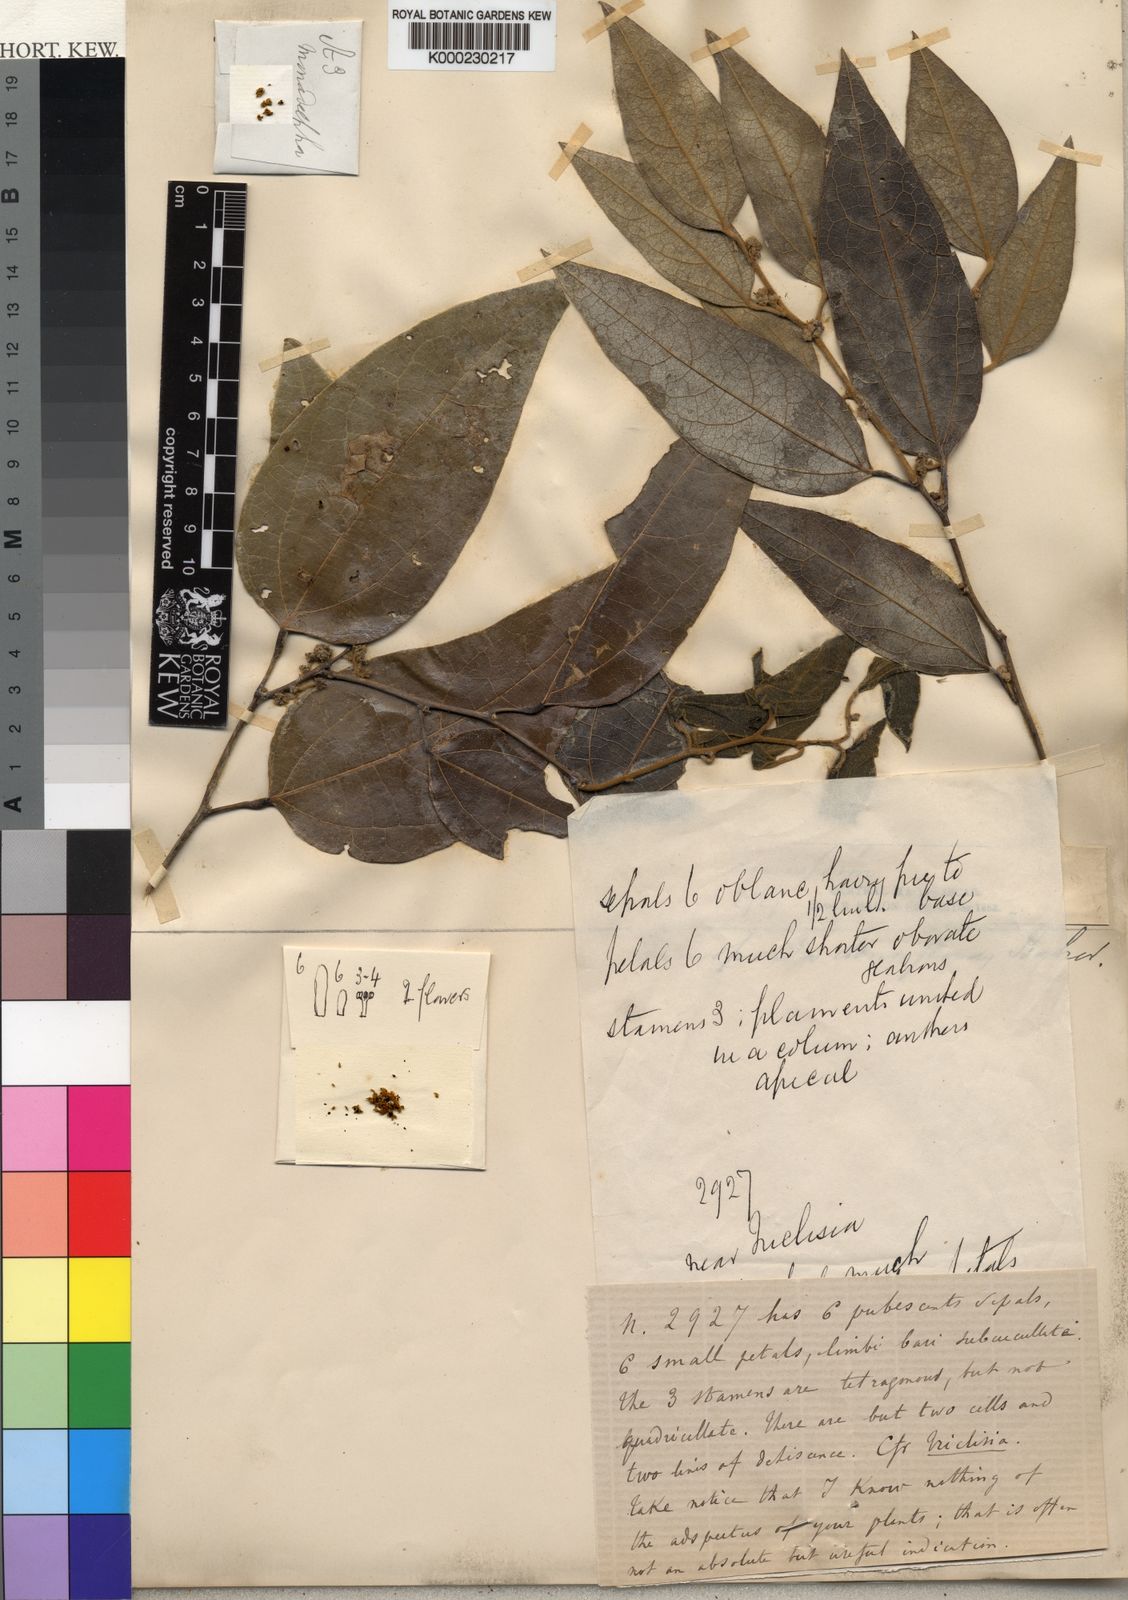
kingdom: Plantae
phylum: Tracheophyta
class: Magnoliopsida
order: Ranunculales
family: Menispermaceae
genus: Rhaptonema
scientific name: Rhaptonema densiflora
